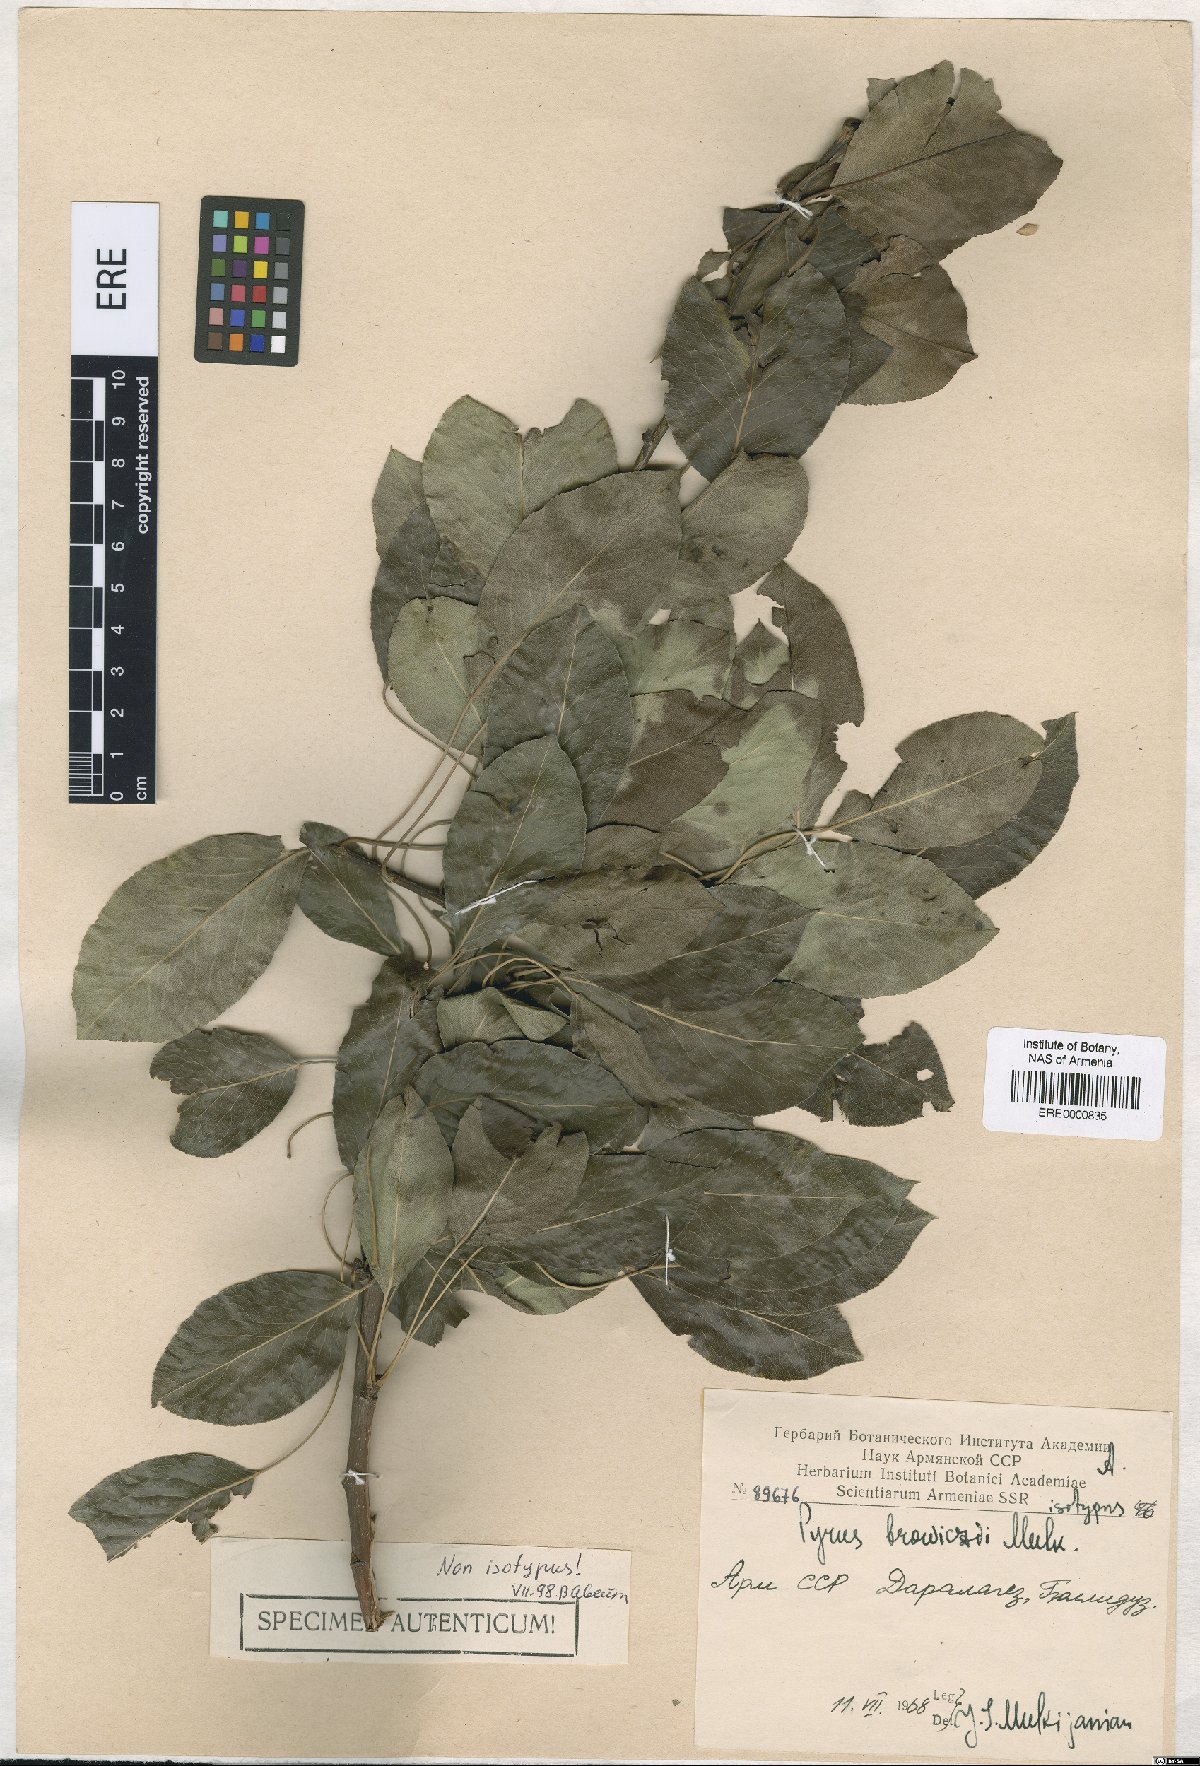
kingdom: Plantae
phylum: Tracheophyta
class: Magnoliopsida
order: Rosales
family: Rosaceae
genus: Pyrus
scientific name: Pyrus browiczii
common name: Brovich's pear
